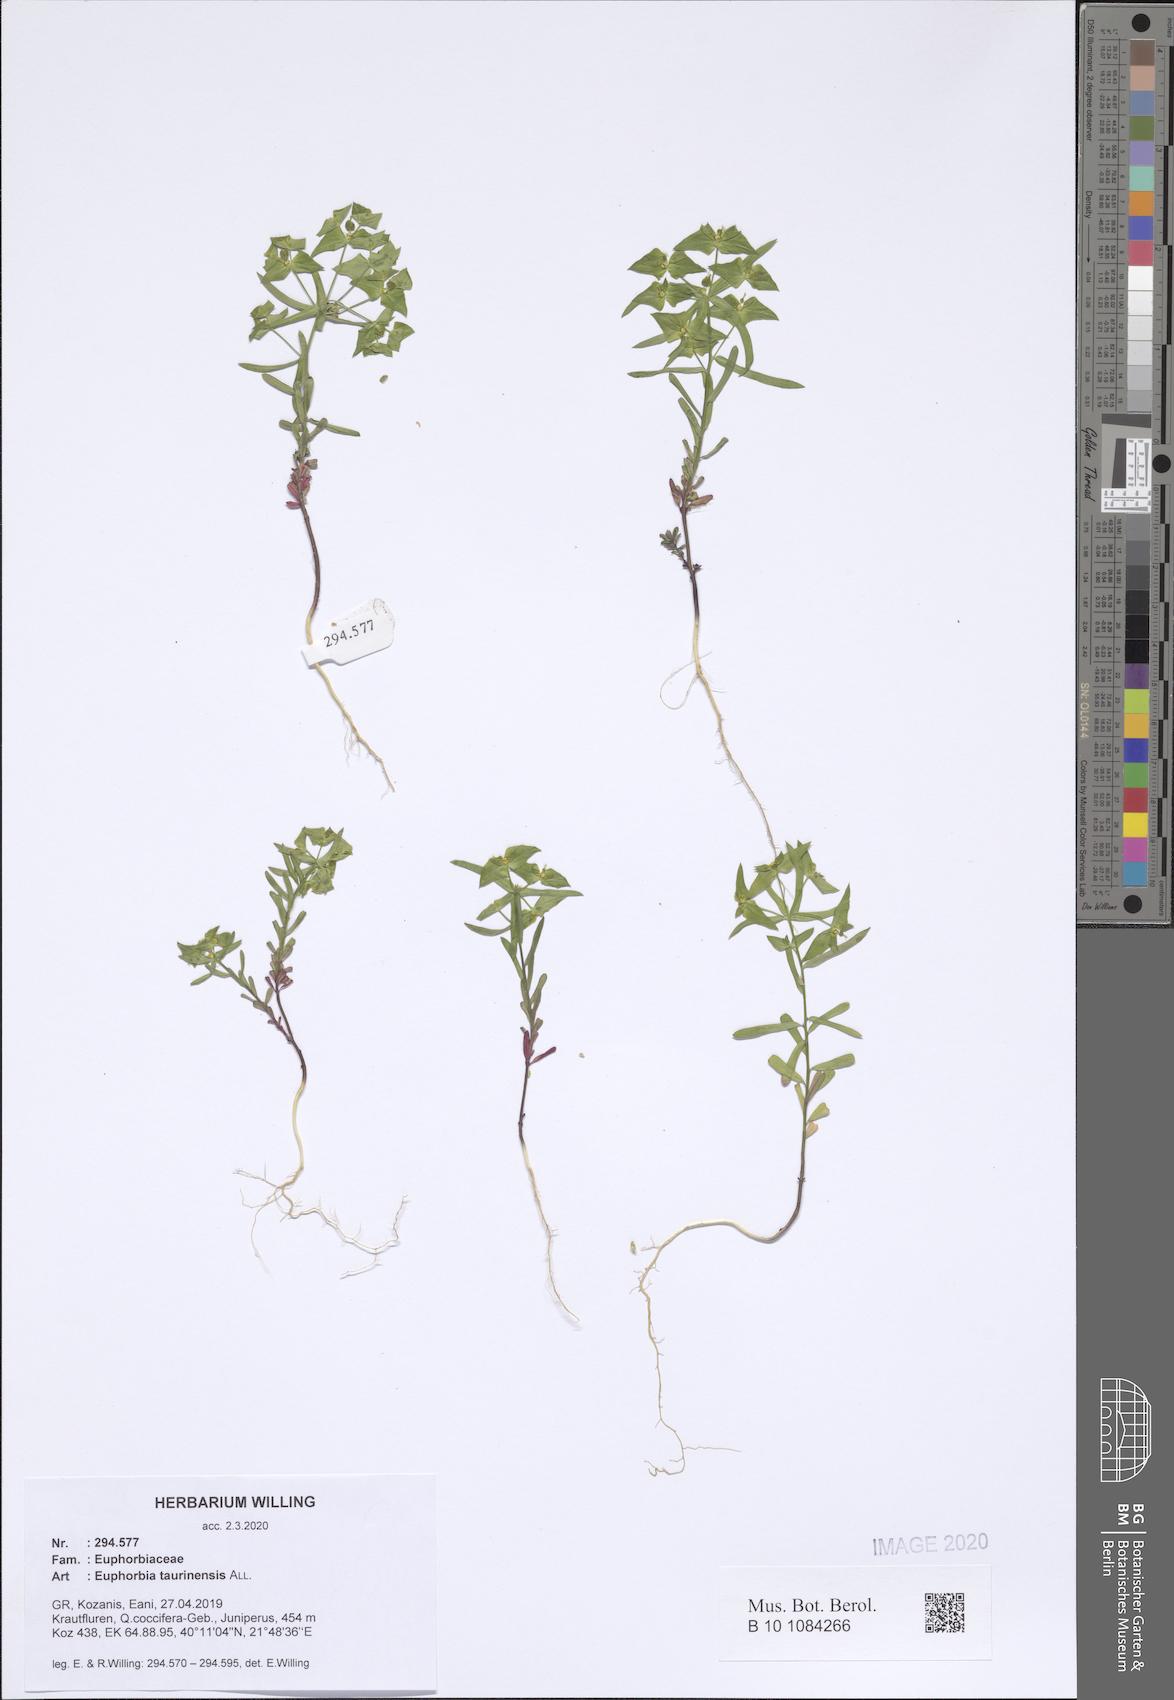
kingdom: Plantae
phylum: Tracheophyta
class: Magnoliopsida
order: Malpighiales
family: Euphorbiaceae
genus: Euphorbia
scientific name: Euphorbia taurinensis
